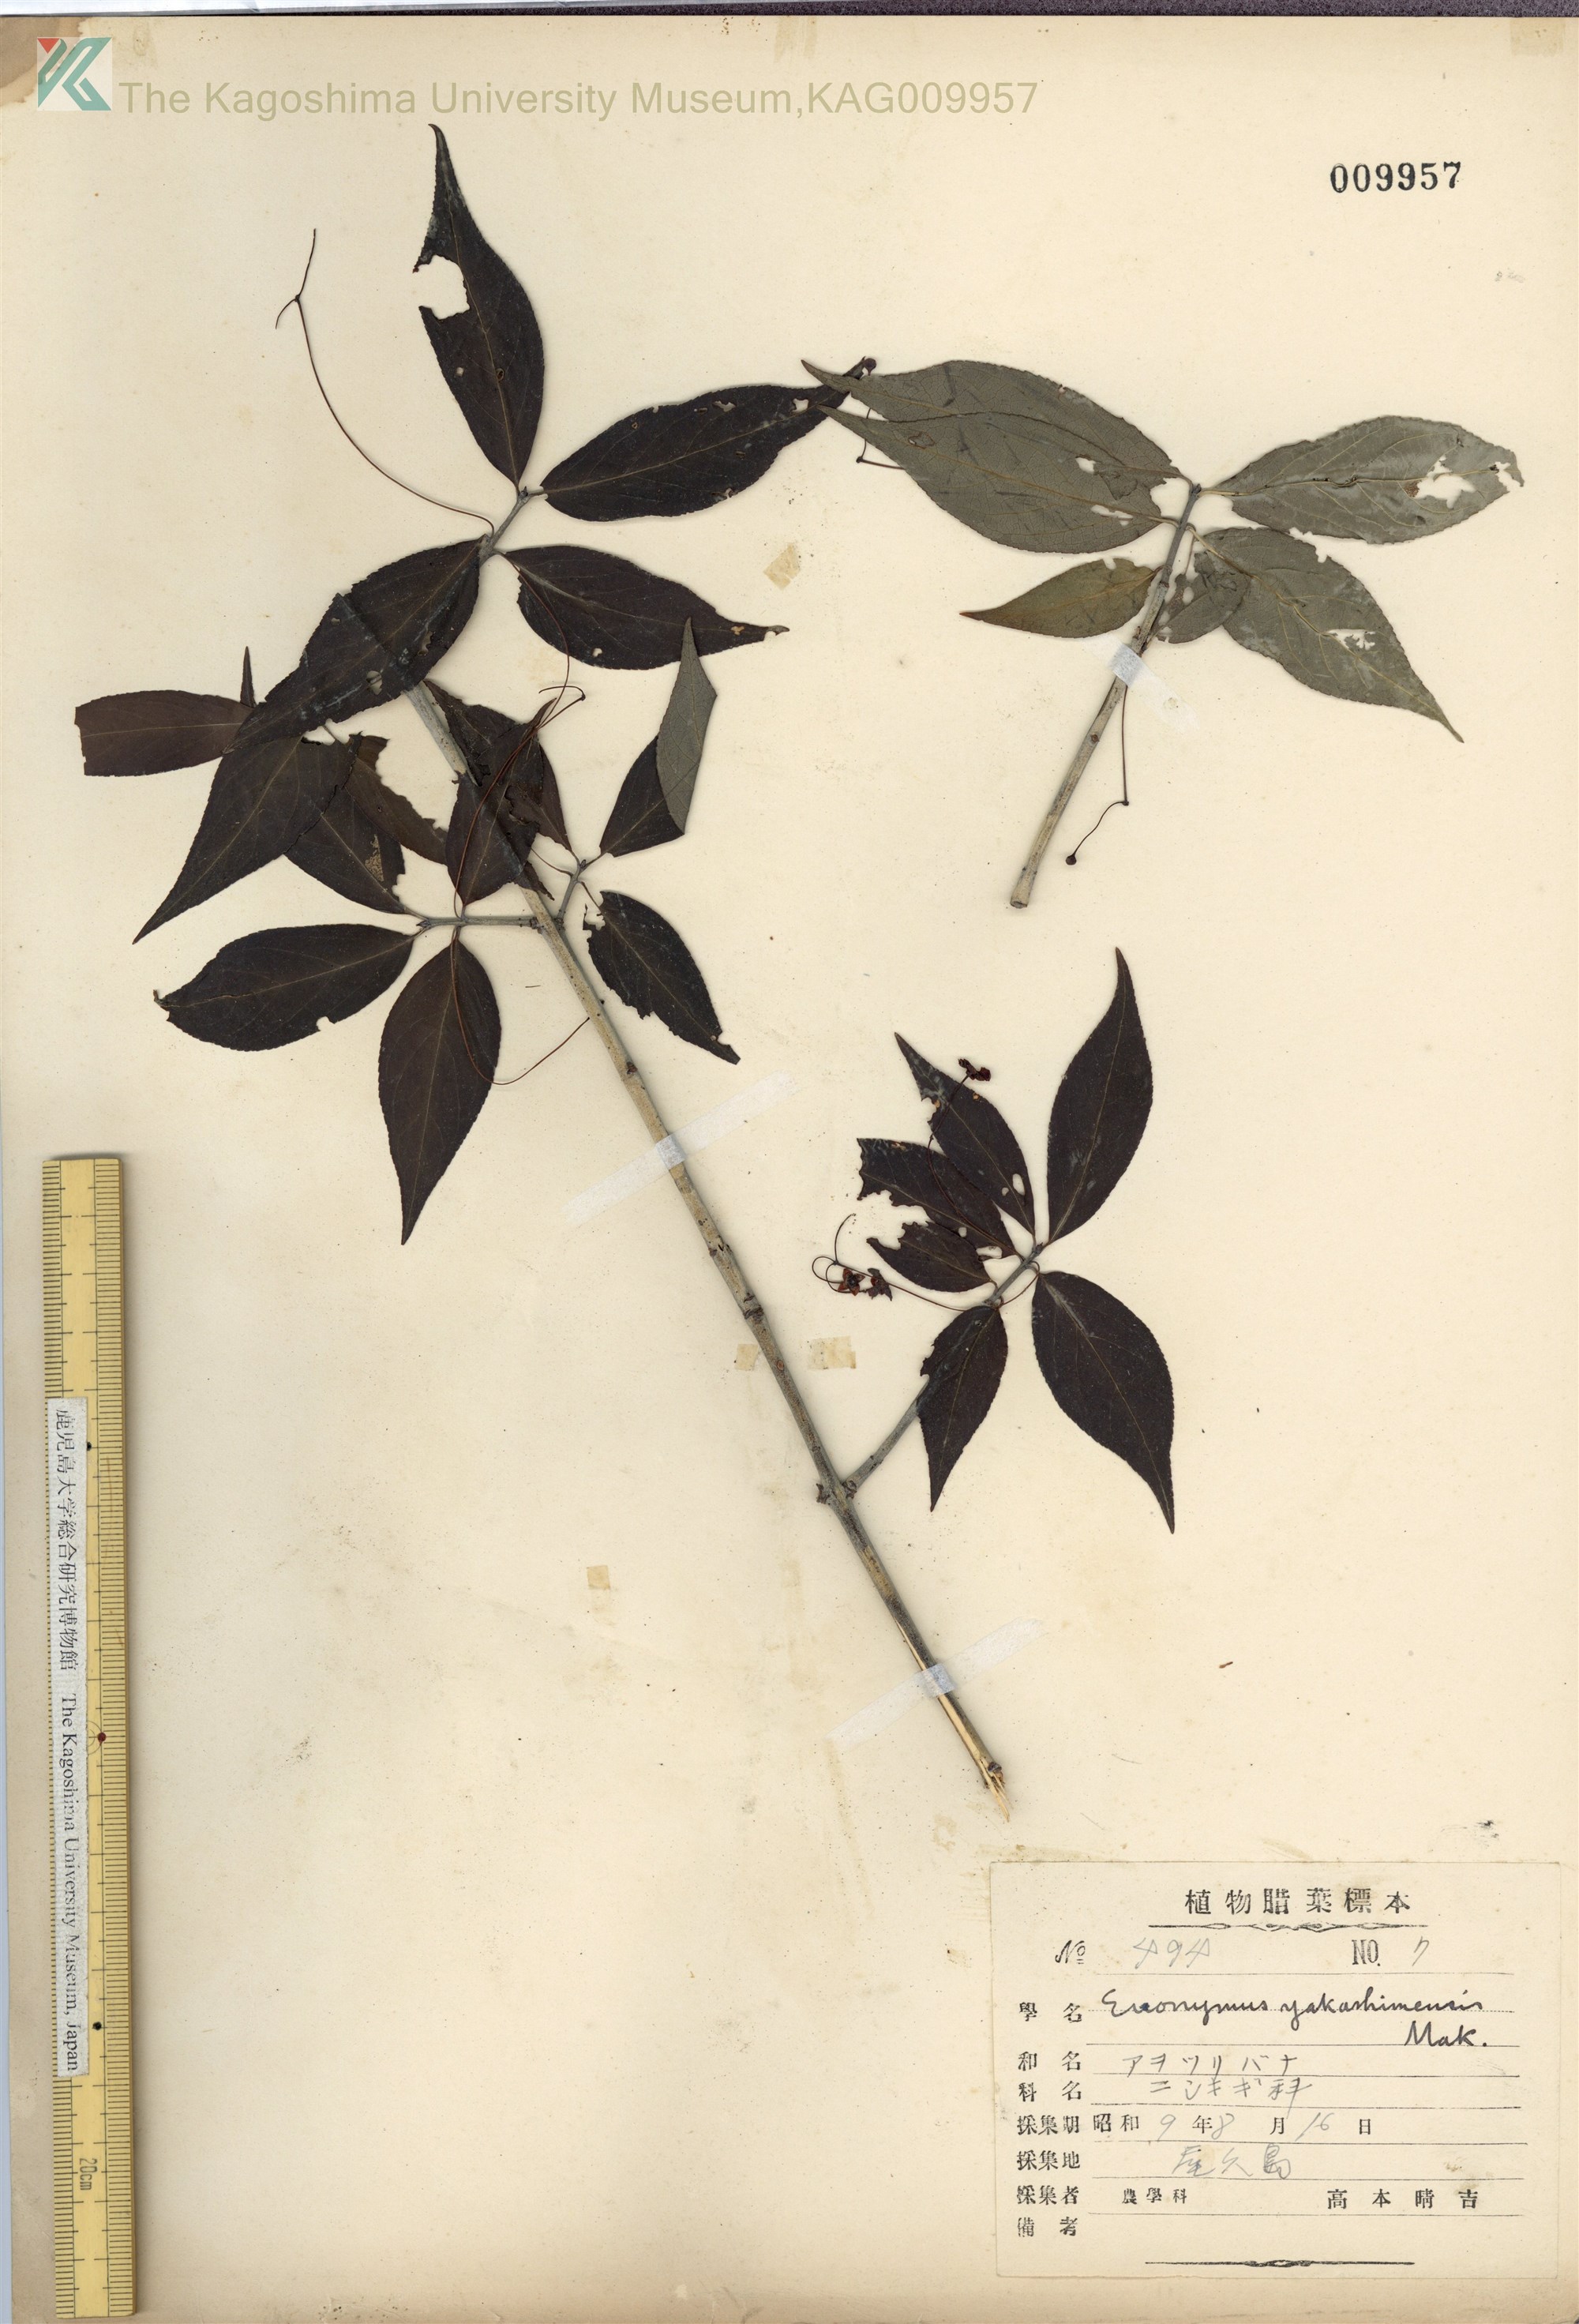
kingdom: Plantae
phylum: Tracheophyta
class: Magnoliopsida
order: Celastrales
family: Celastraceae
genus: Euonymus
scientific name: Euonymus yakushimensis
